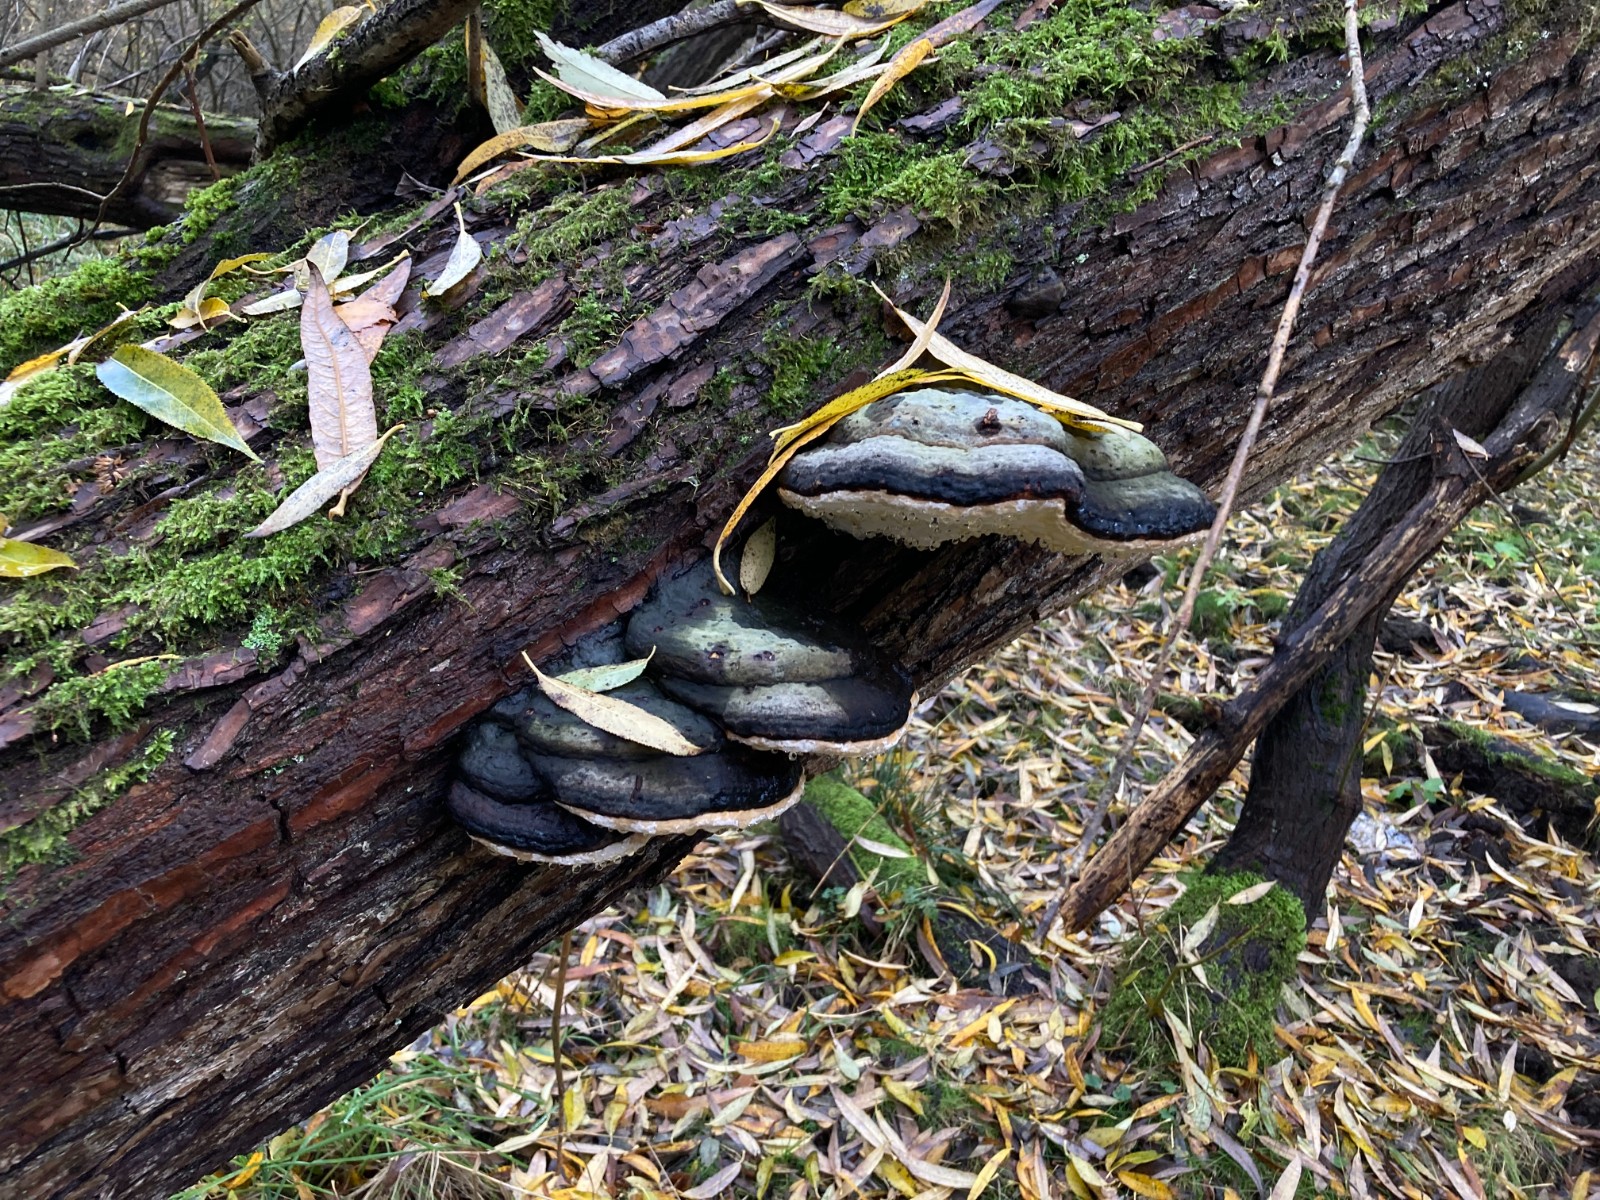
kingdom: Fungi
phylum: Basidiomycota
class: Agaricomycetes
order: Polyporales
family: Fomitopsidaceae
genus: Fomitopsis
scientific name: Fomitopsis pinicola
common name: randbæltet hovporesvamp
